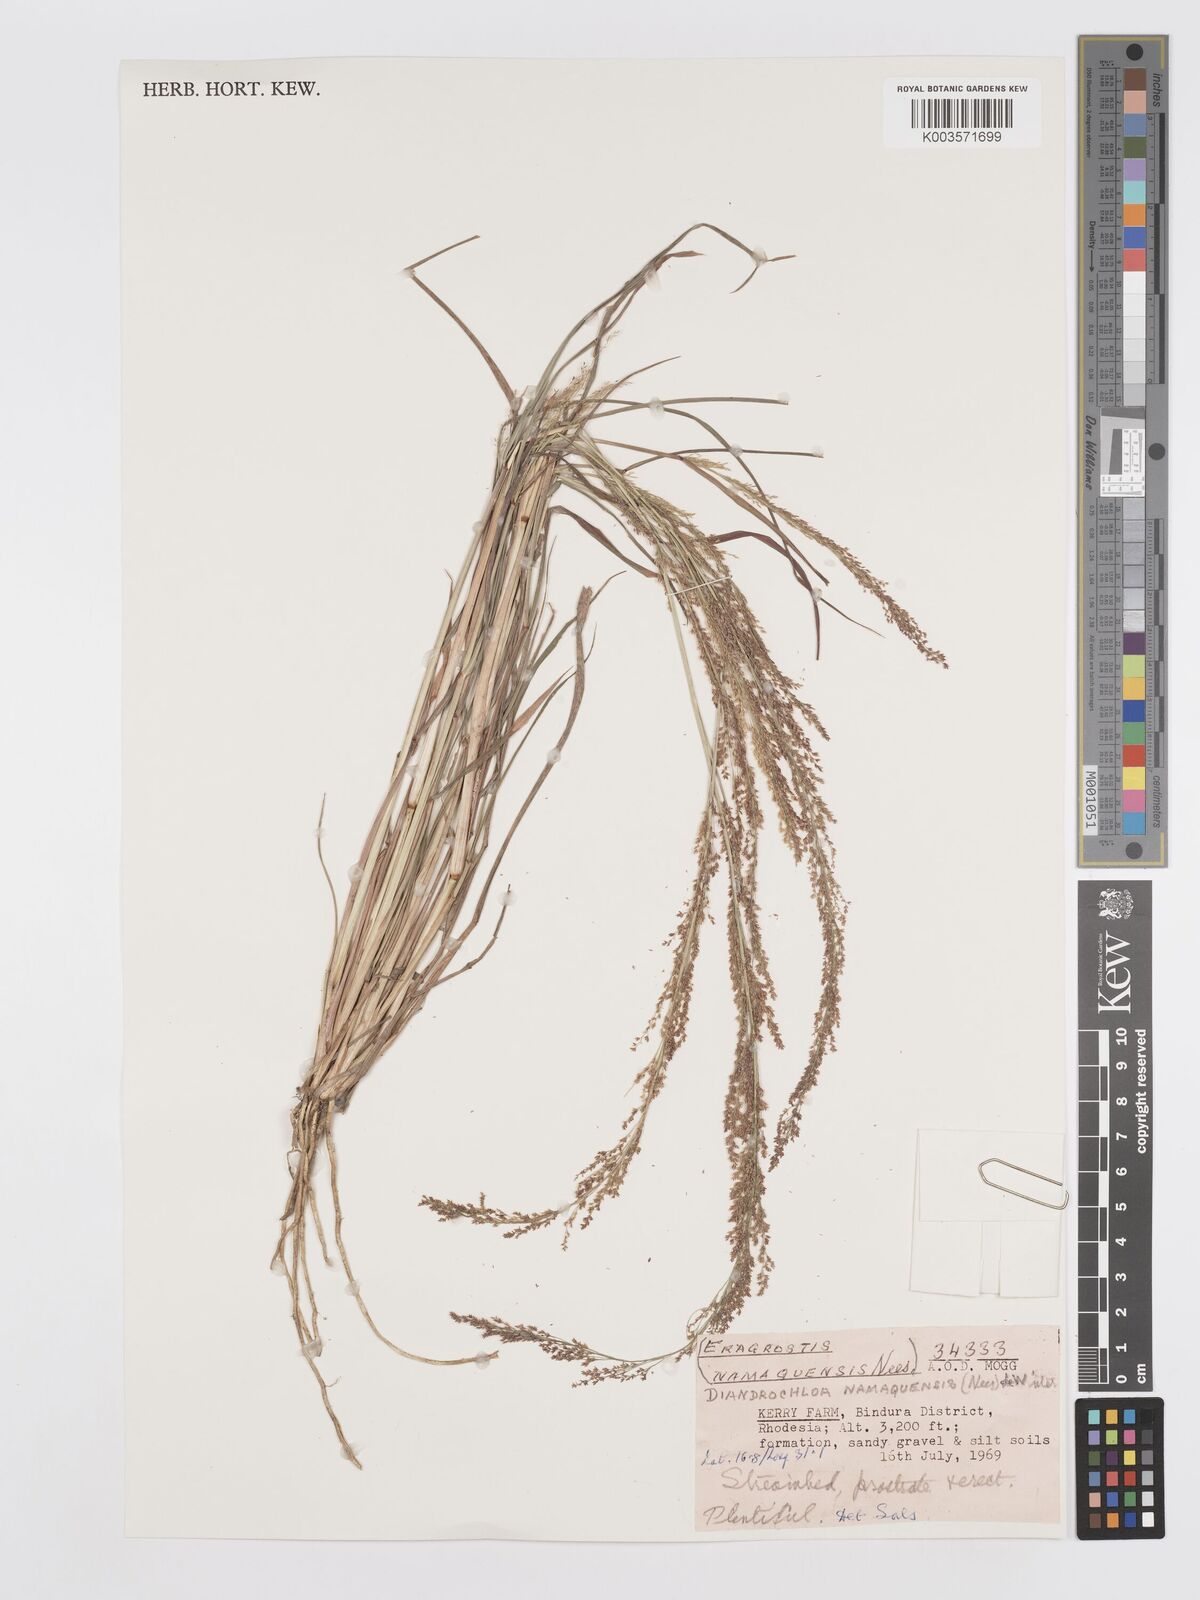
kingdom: Plantae
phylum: Tracheophyta
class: Liliopsida
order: Poales
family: Poaceae
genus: Eragrostis
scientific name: Eragrostis japonica
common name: Pond lovegrass
